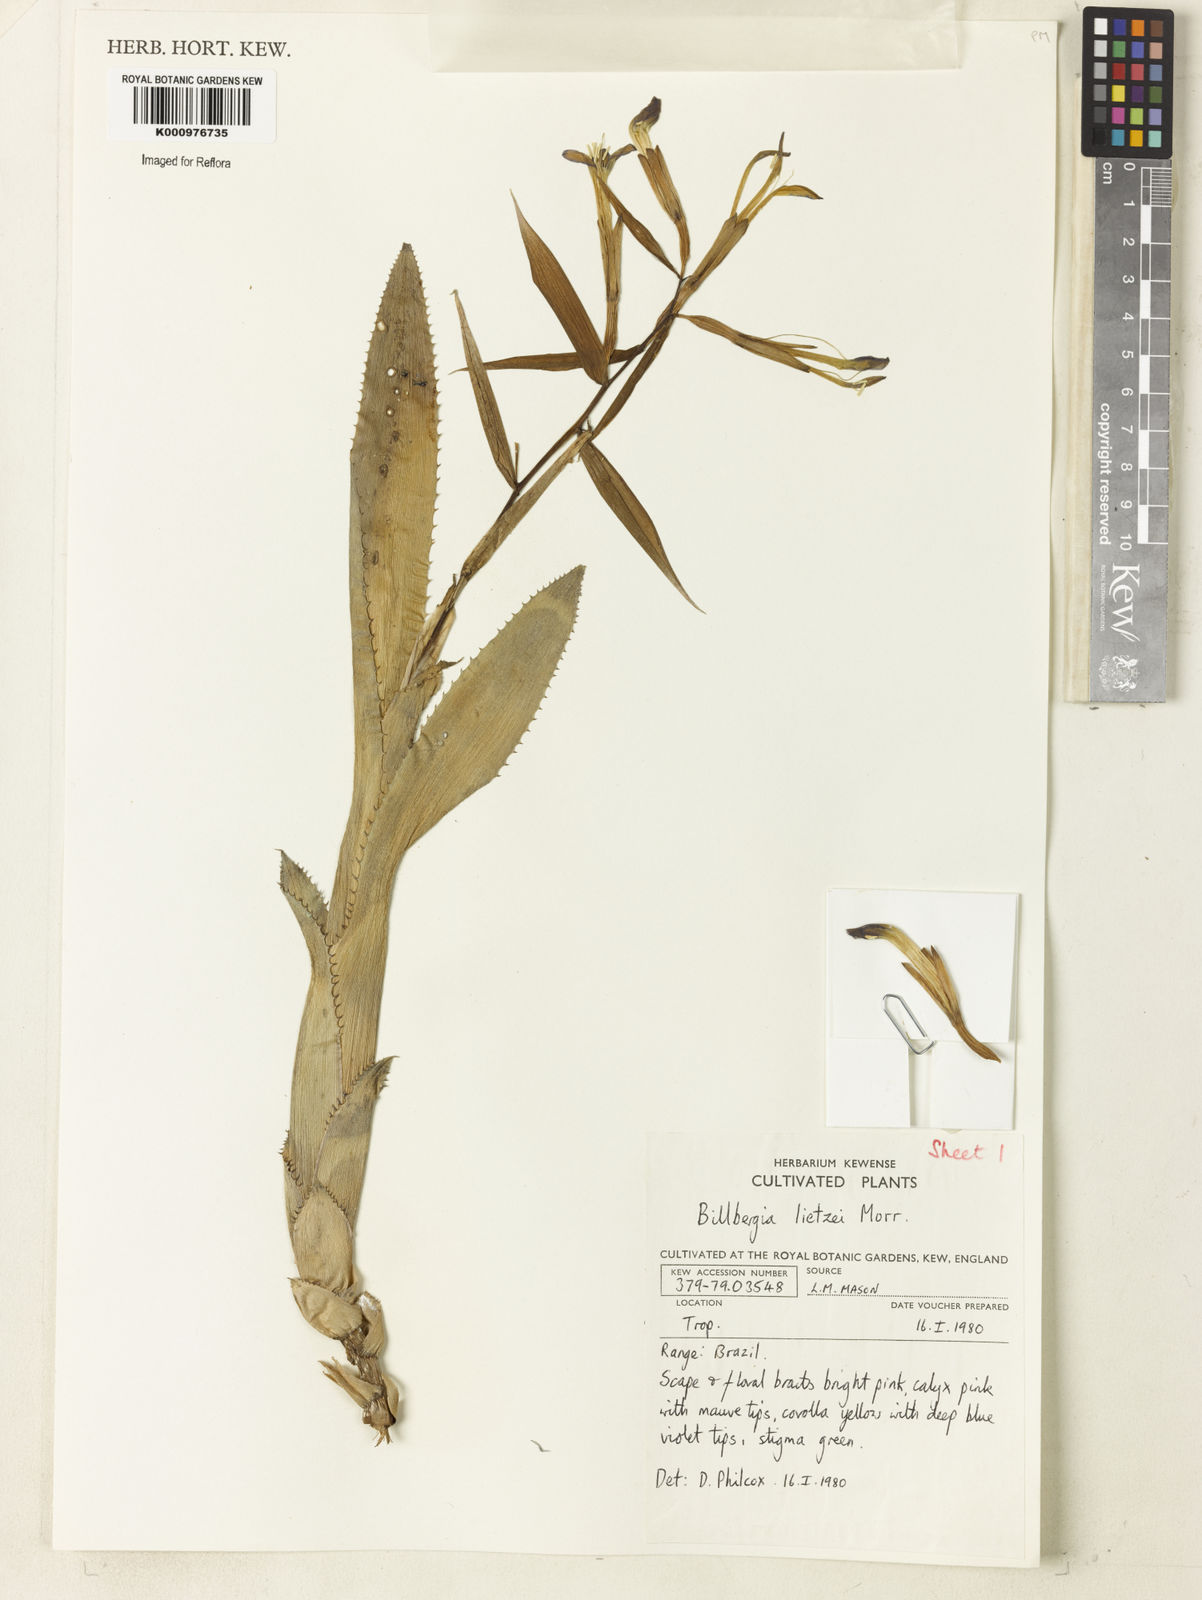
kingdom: Plantae
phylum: Tracheophyta
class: Liliopsida
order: Poales
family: Bromeliaceae
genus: Billbergia
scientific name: Billbergia lietzei
